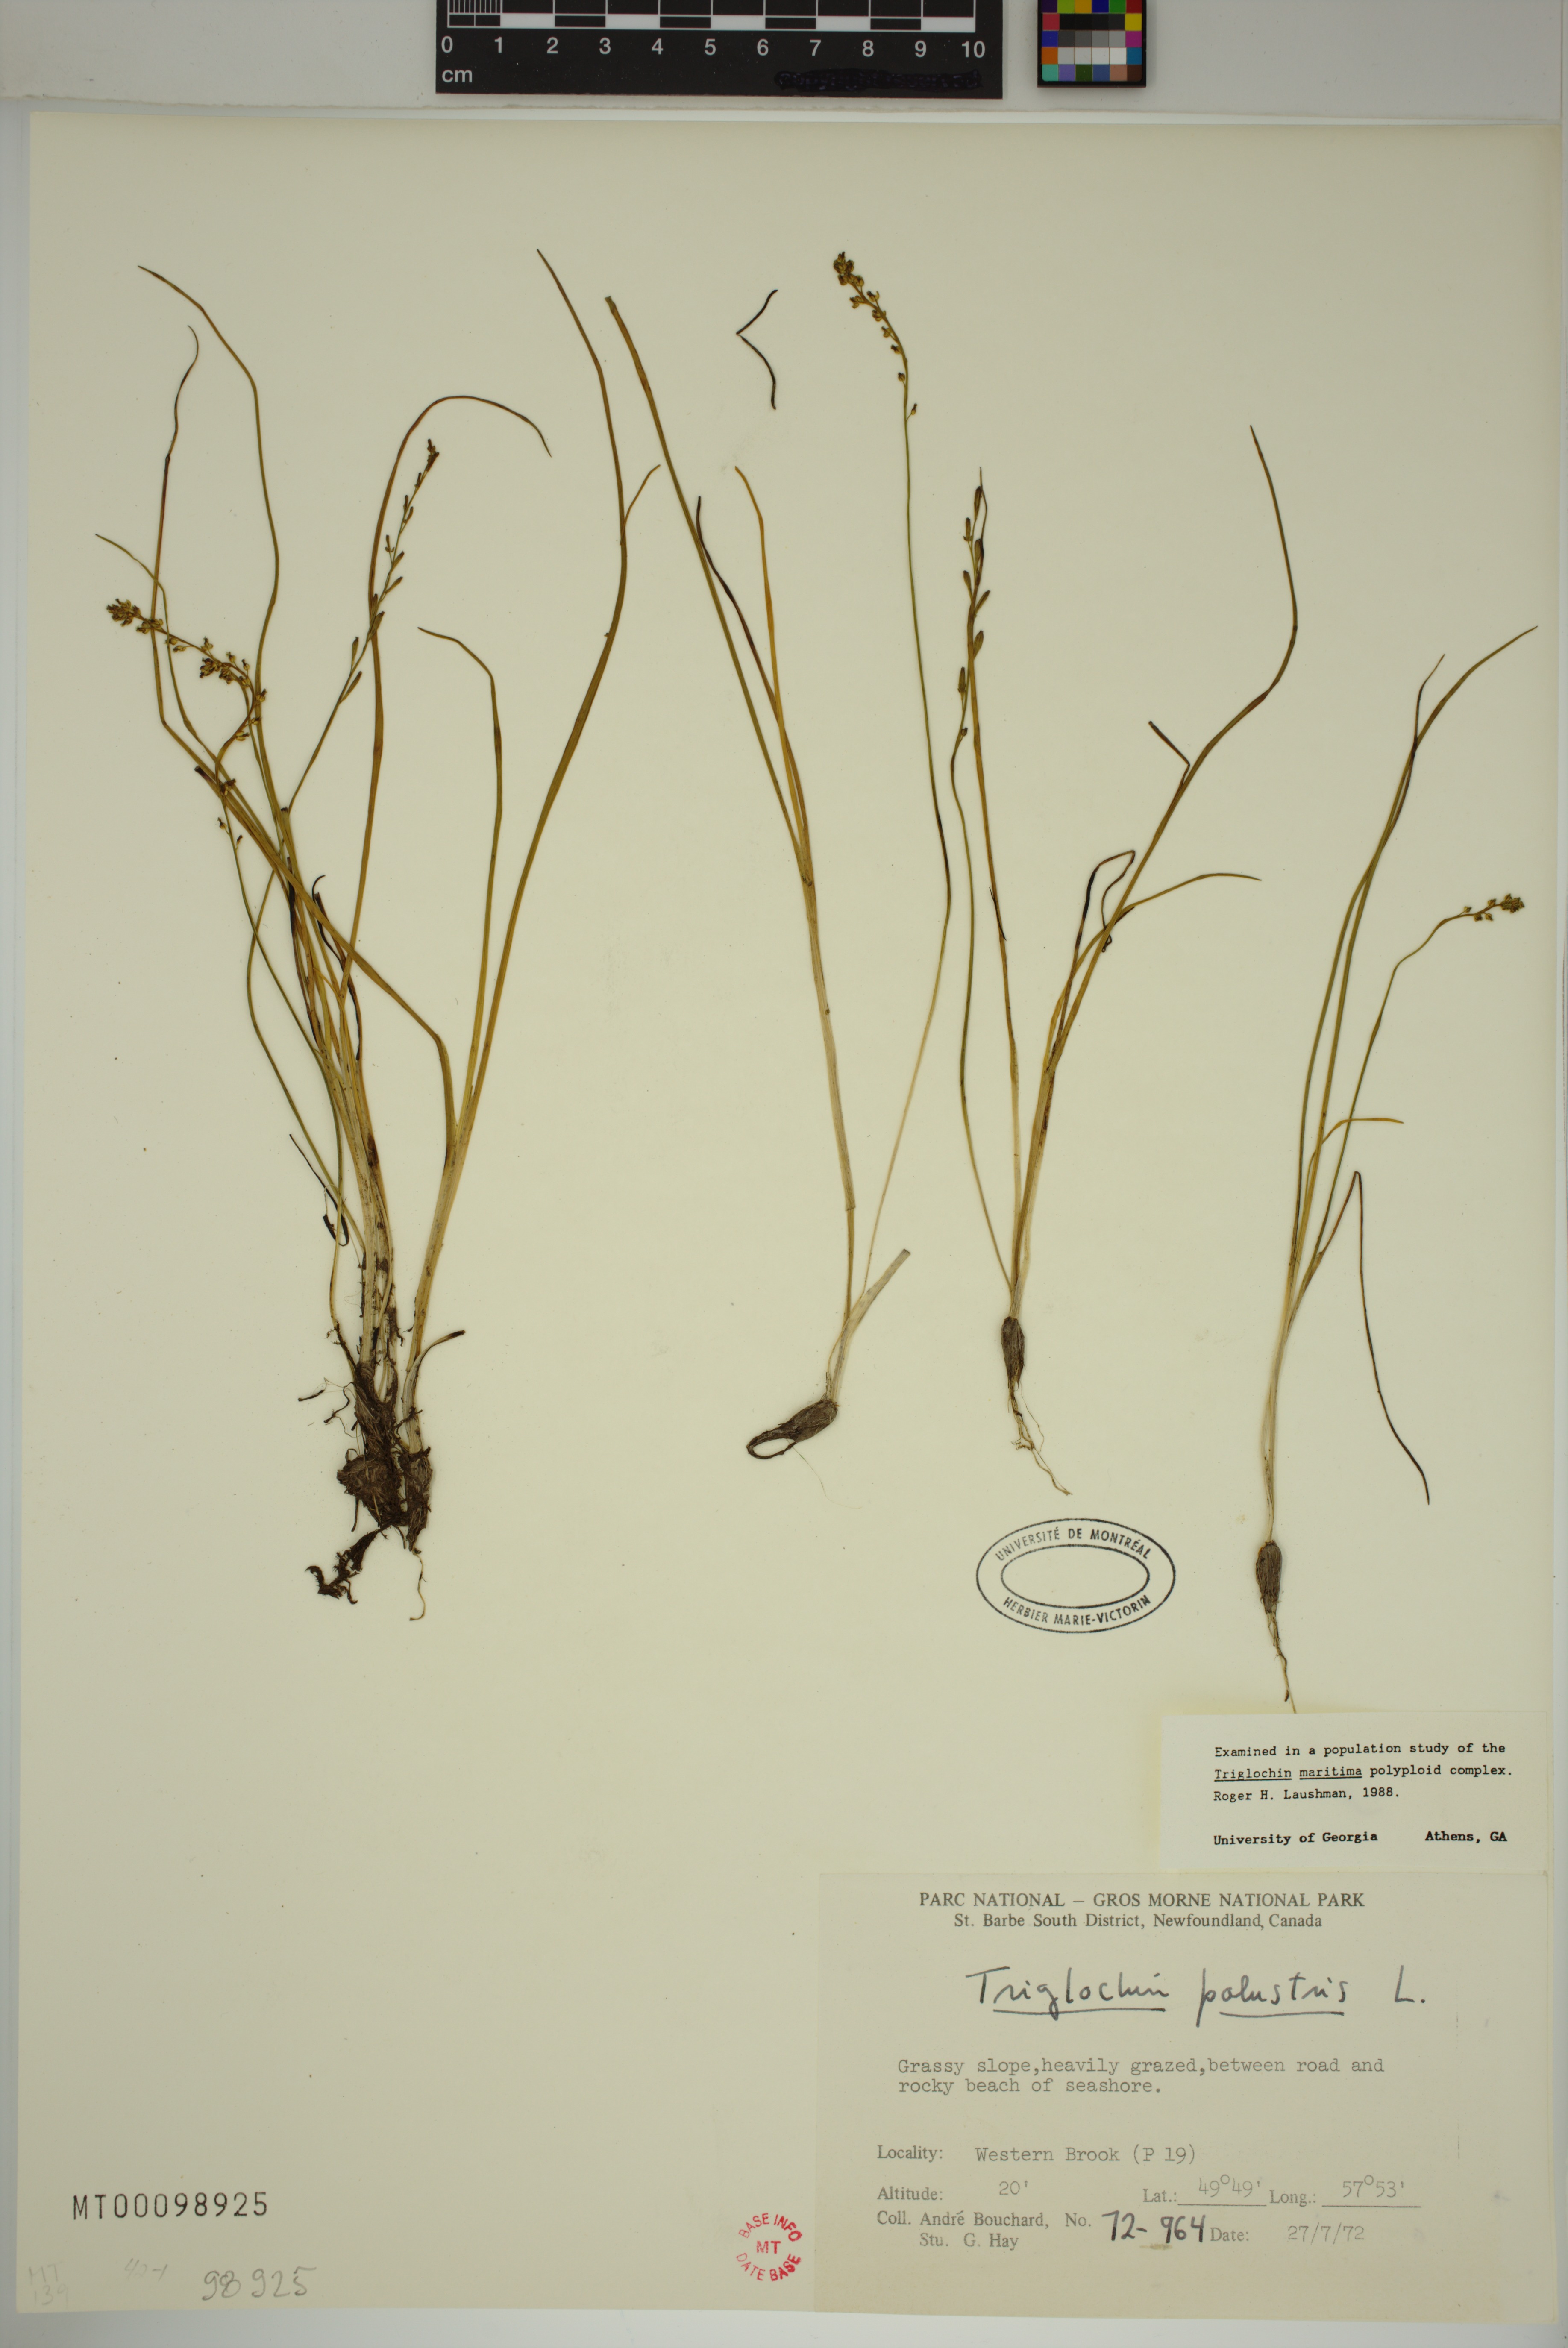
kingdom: Plantae
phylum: Tracheophyta
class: Liliopsida
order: Alismatales
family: Juncaginaceae
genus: Triglochin
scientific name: Triglochin palustris
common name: Marsh arrowgrass
